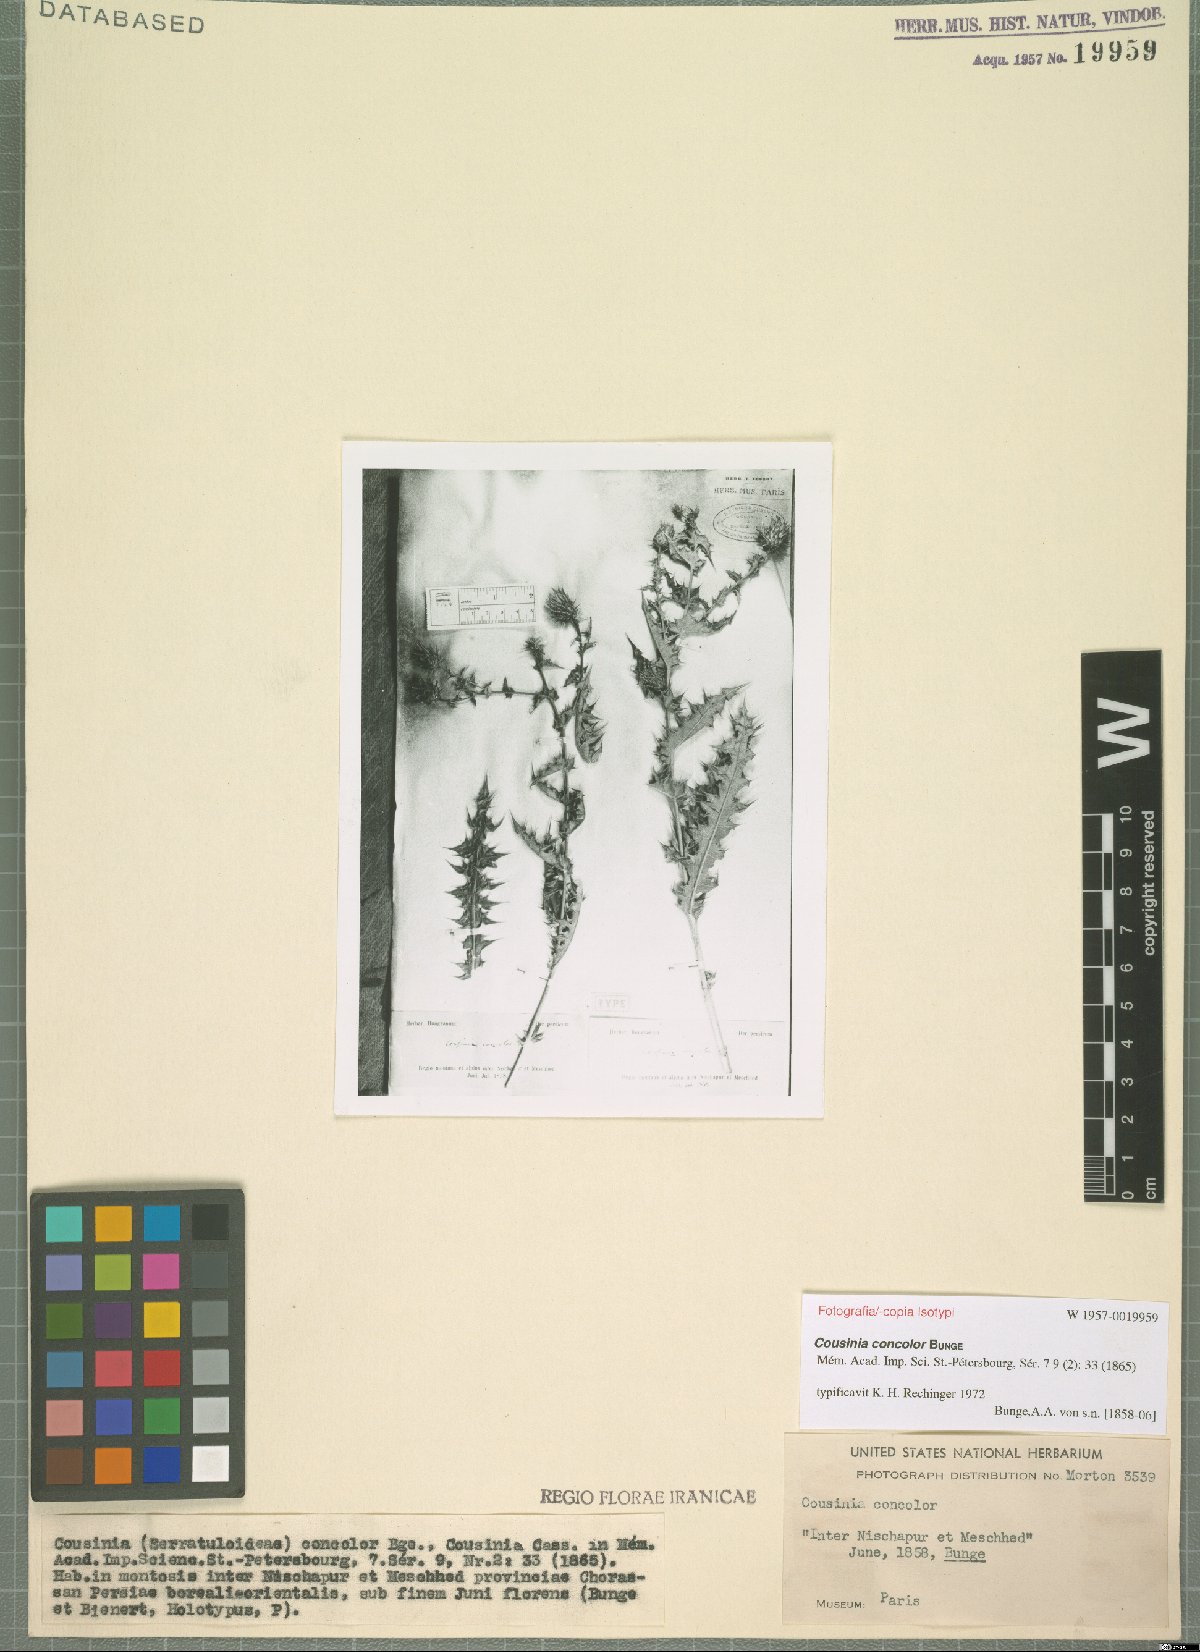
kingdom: Plantae
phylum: Tracheophyta
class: Magnoliopsida
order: Asterales
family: Asteraceae
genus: Cousinia
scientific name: Cousinia concolor
